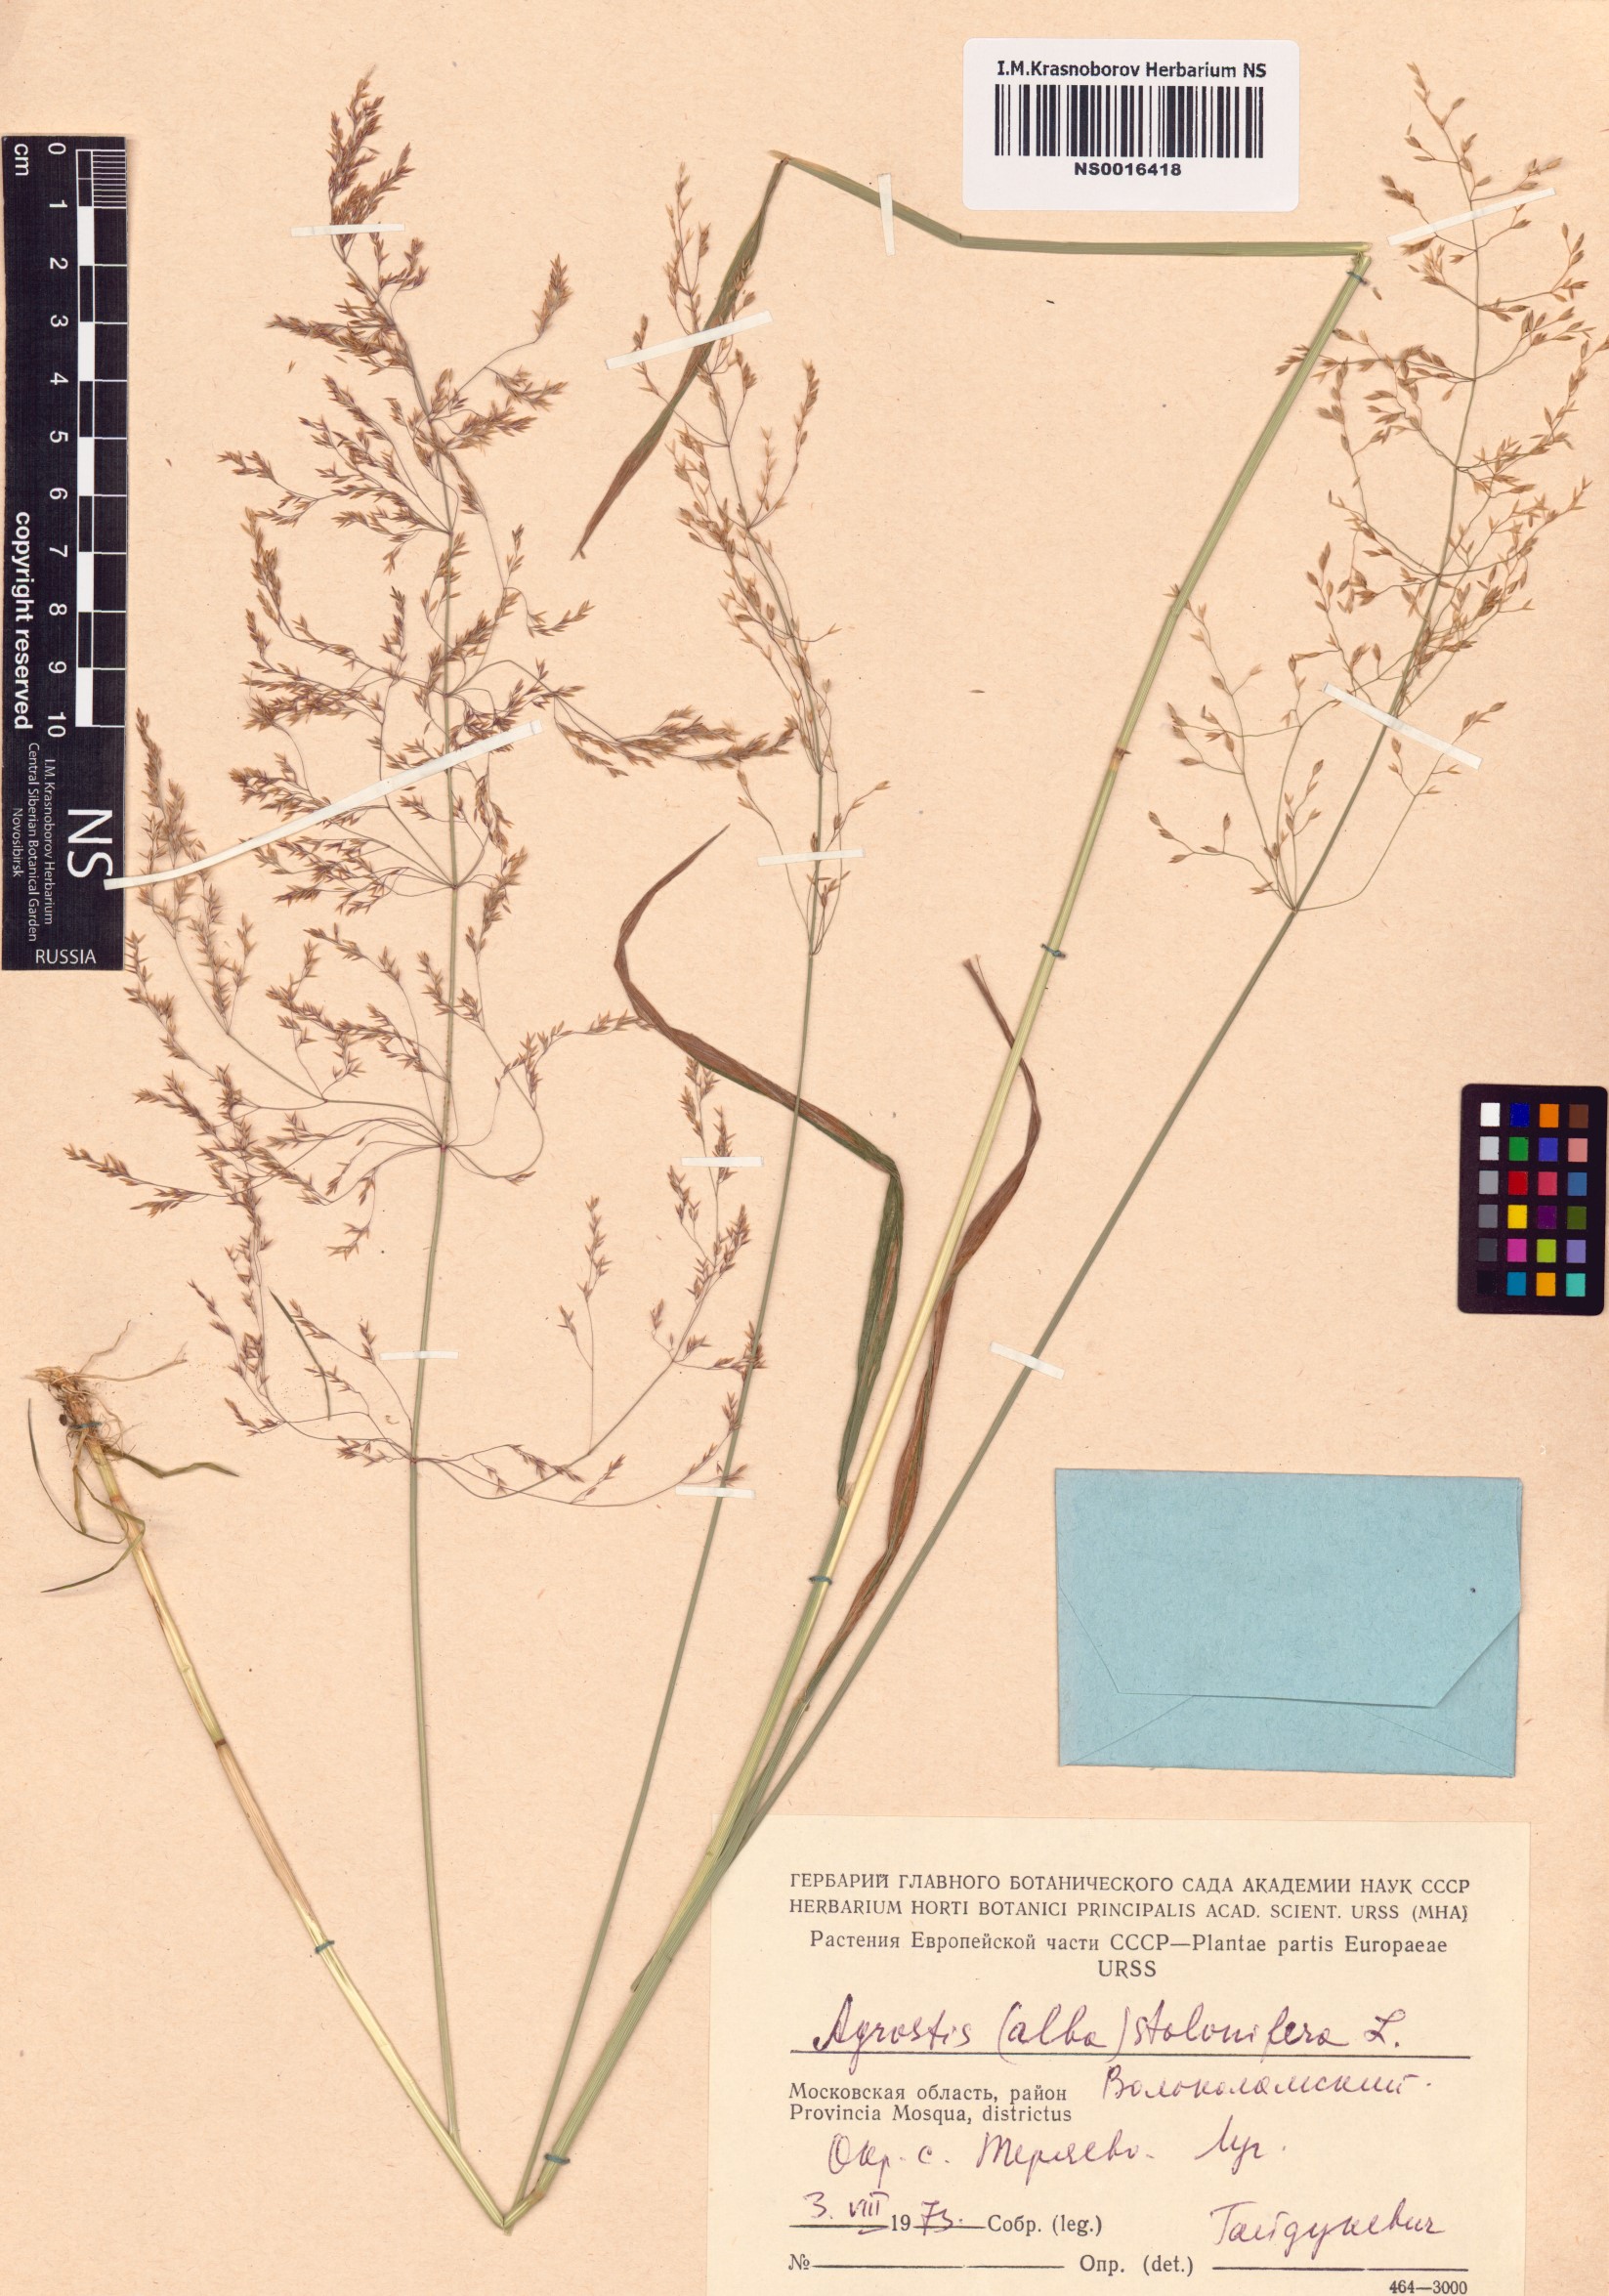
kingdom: Plantae
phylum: Tracheophyta
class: Liliopsida
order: Poales
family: Poaceae
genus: Agrostis
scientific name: Agrostis stolonifera
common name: Creeping bentgrass
